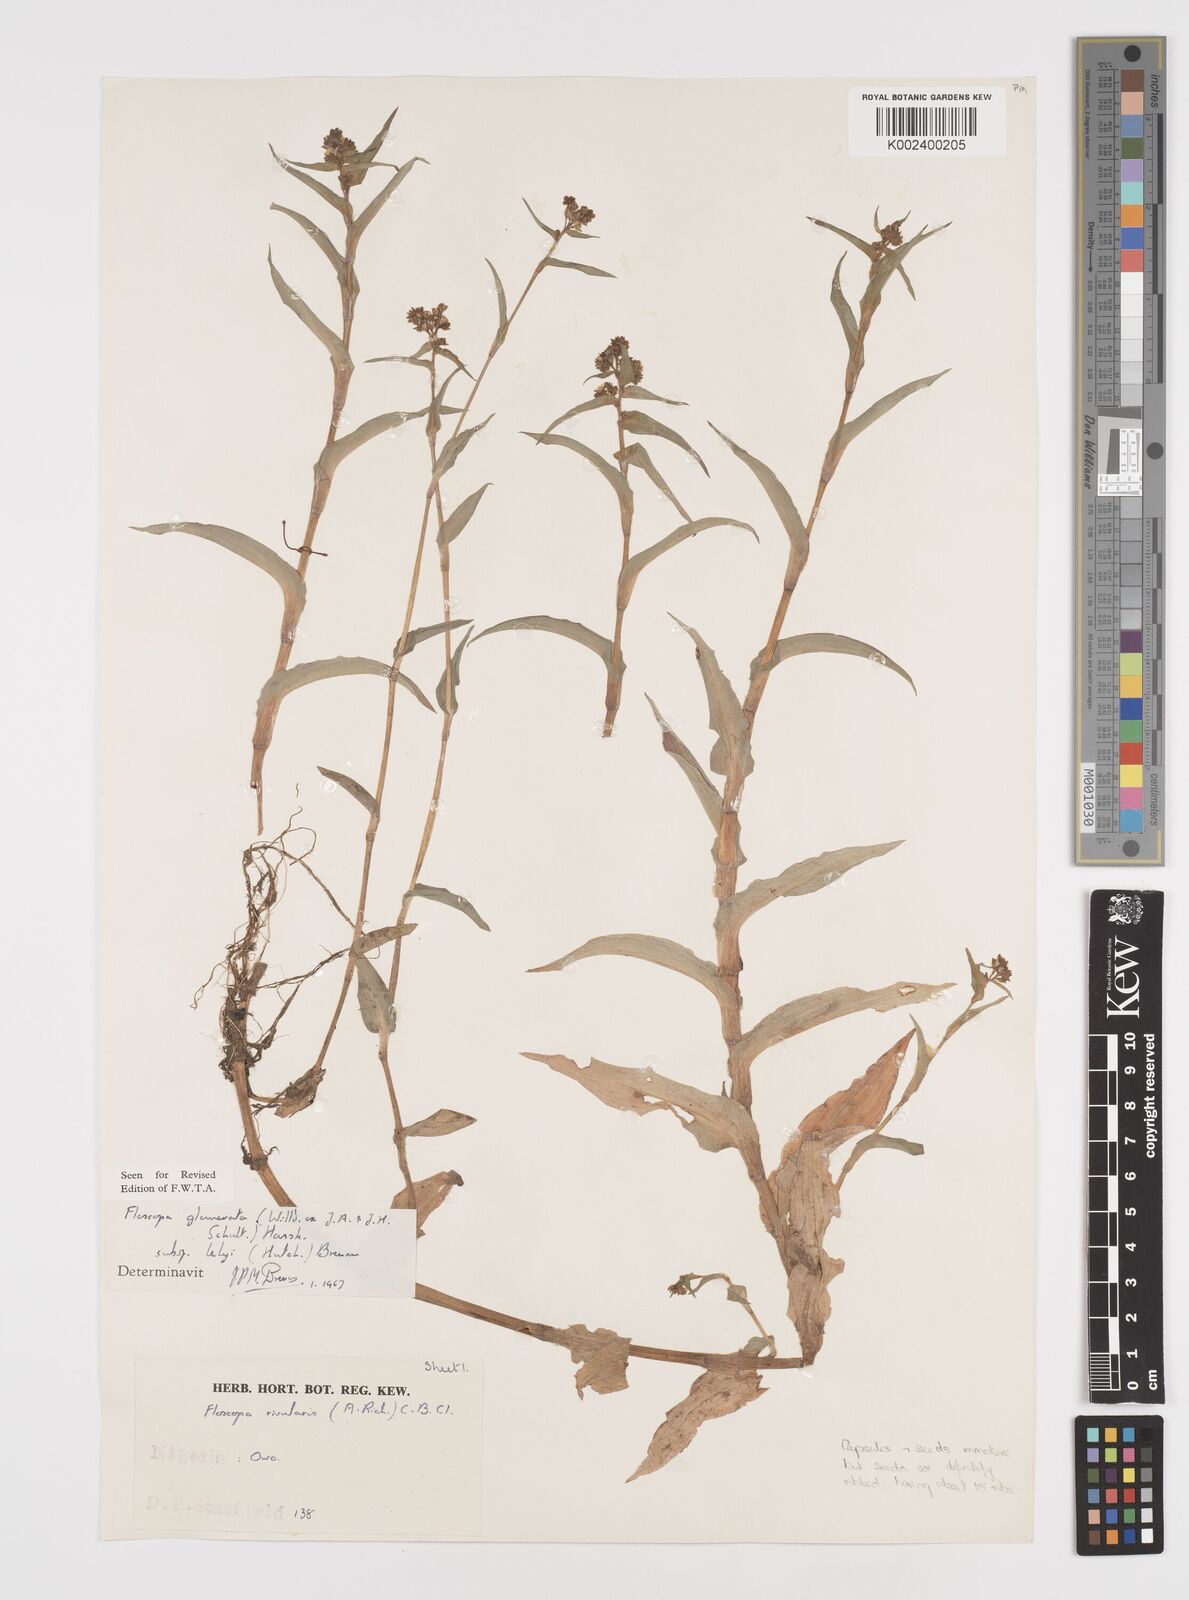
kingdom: Plantae
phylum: Tracheophyta
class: Liliopsida
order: Commelinales
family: Commelinaceae
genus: Floscopa
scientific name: Floscopa glomerata
